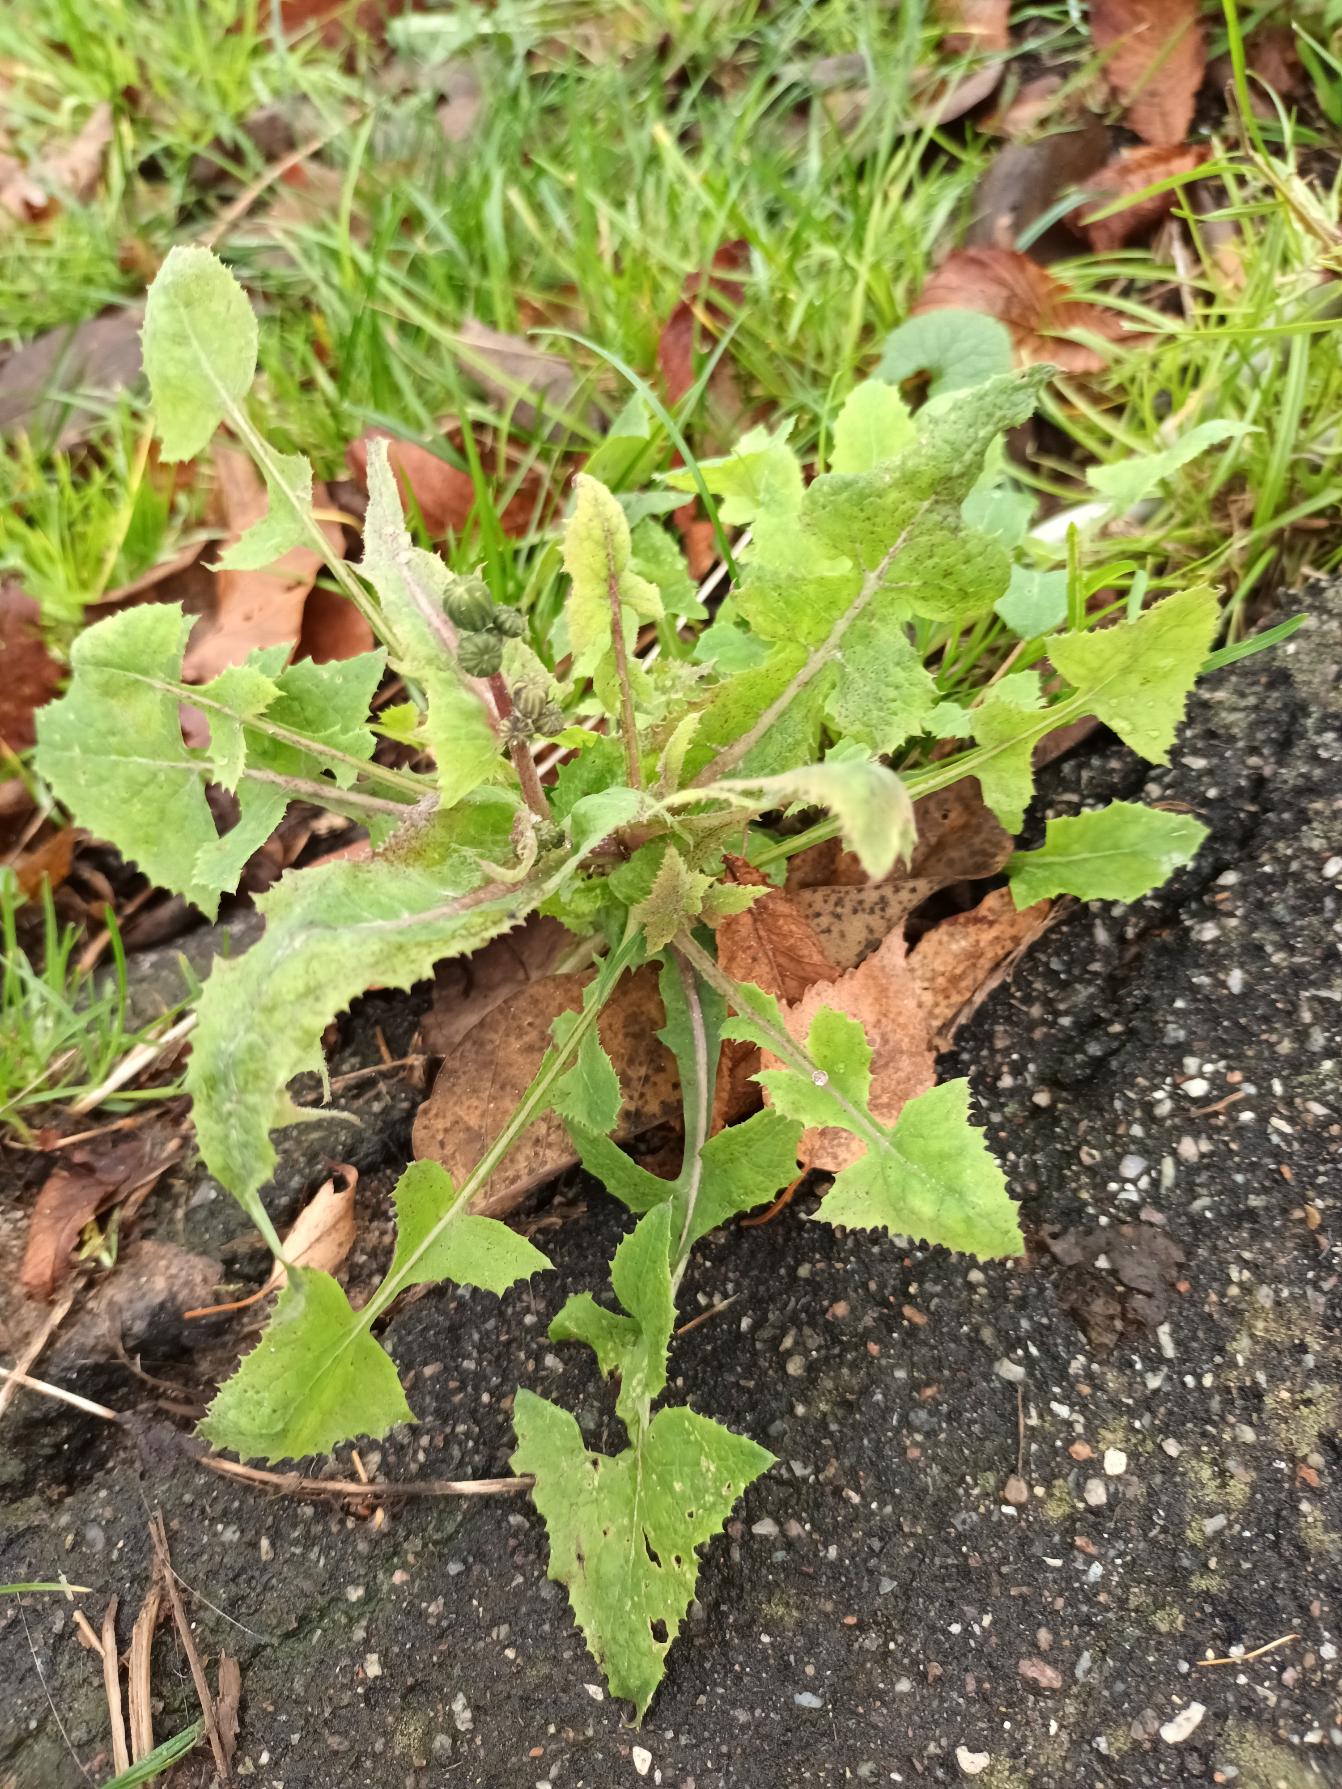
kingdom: Plantae
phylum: Tracheophyta
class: Magnoliopsida
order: Asterales
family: Asteraceae
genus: Sonchus
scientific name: Sonchus oleraceus
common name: Almindelig svinemælk
